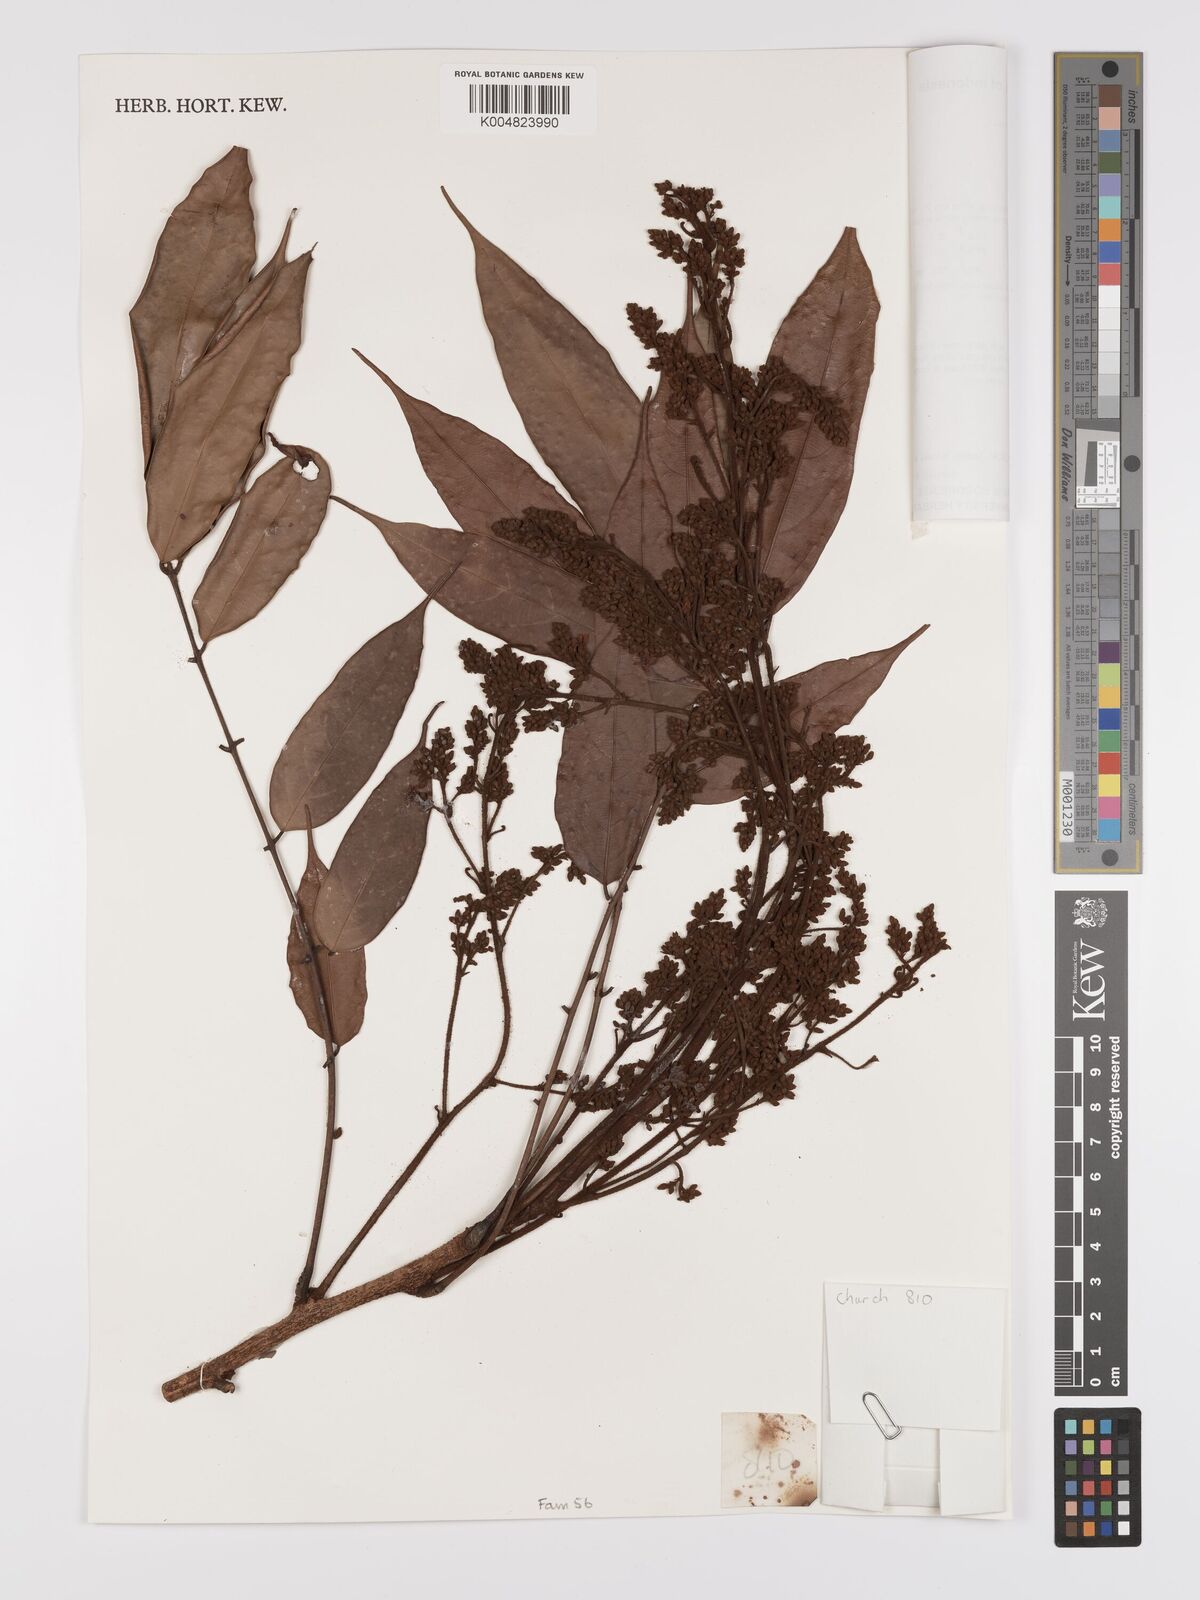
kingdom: Plantae
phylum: Tracheophyta
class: Magnoliopsida
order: Oxalidales
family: Connaraceae
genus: Connarus
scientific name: Connarus odoratus
